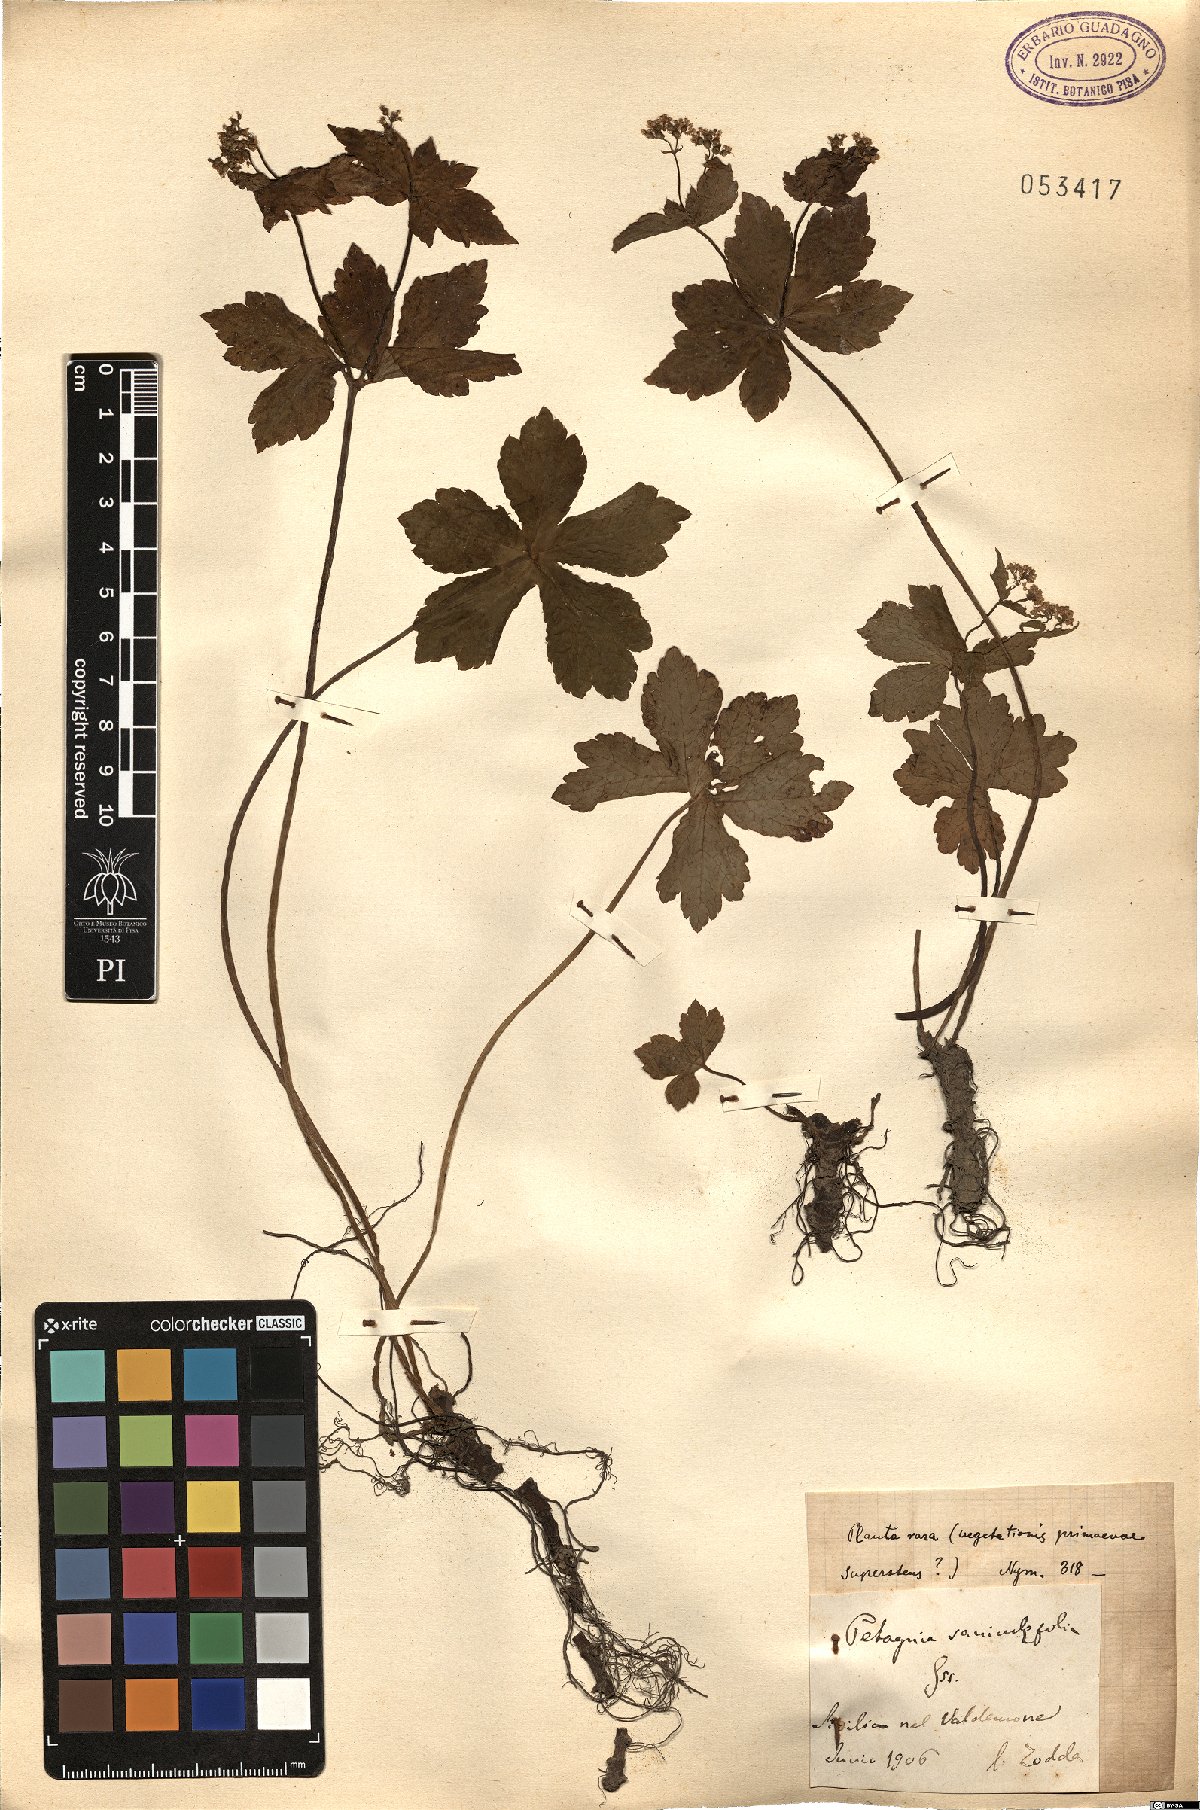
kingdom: Plantae
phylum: Tracheophyta
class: Magnoliopsida
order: Apiales
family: Apiaceae
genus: Petagnaea
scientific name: Petagnaea gussonei
